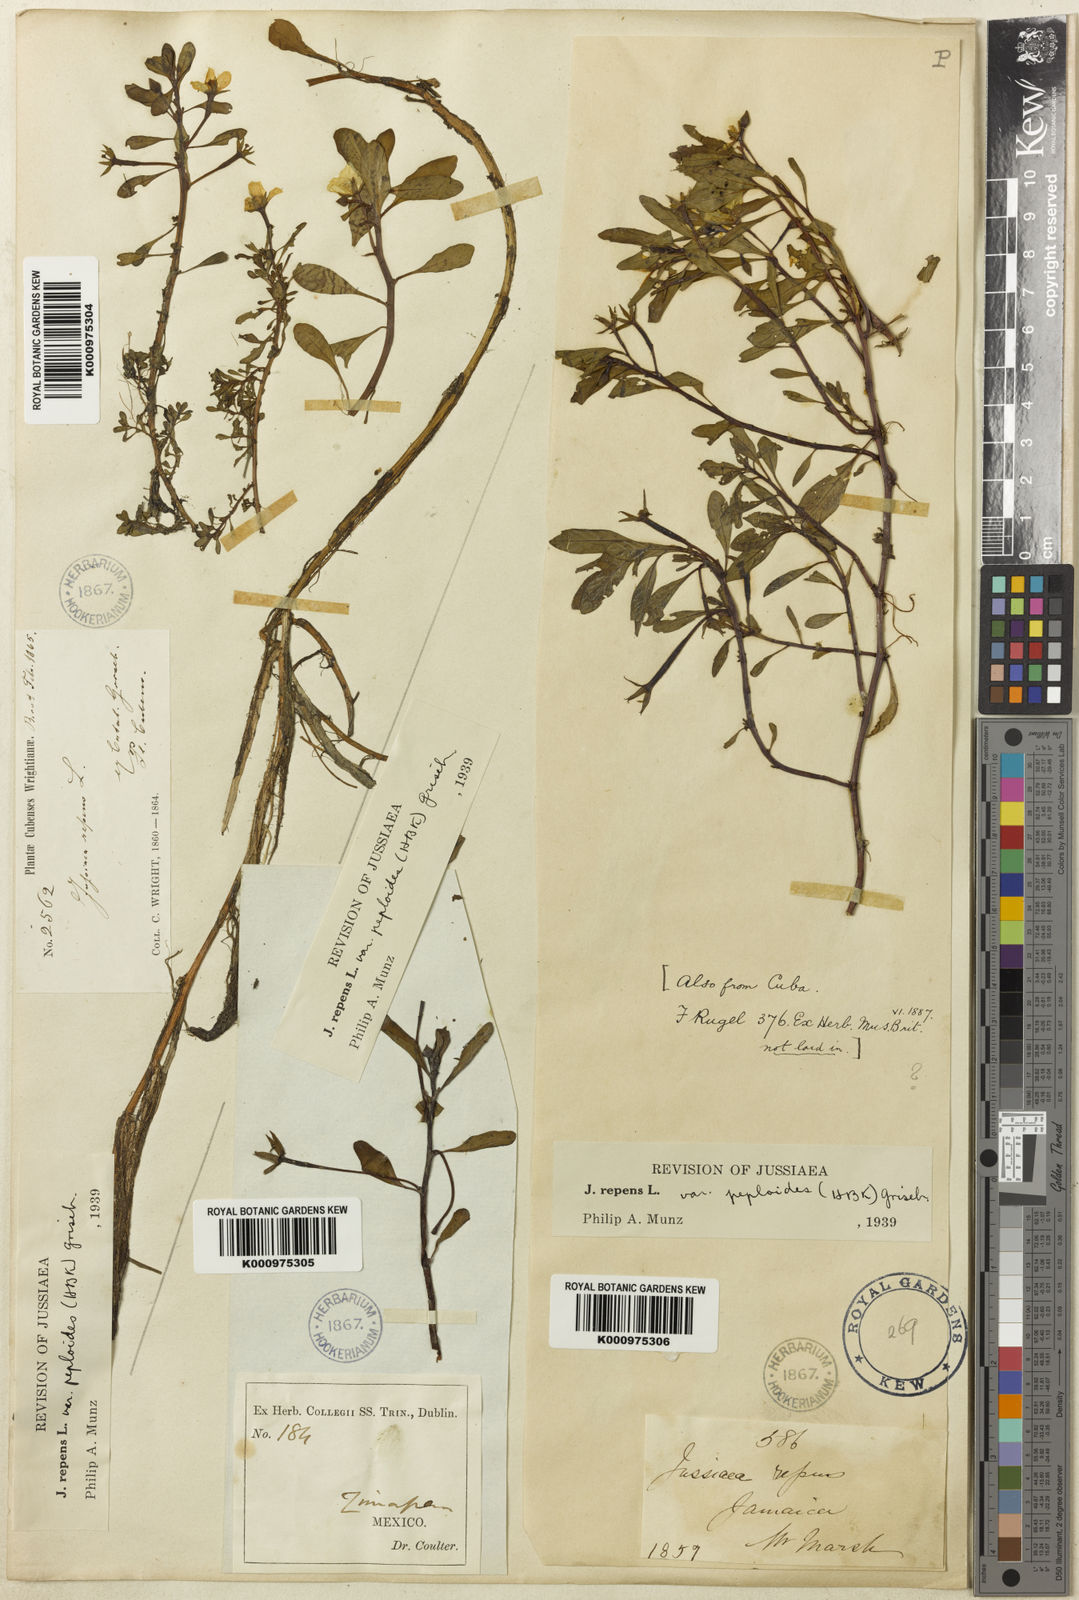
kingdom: Plantae
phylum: Tracheophyta
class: Magnoliopsida
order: Myrtales
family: Onagraceae
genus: Ludwigia
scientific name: Ludwigia peploides
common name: Floating primrose-willow
